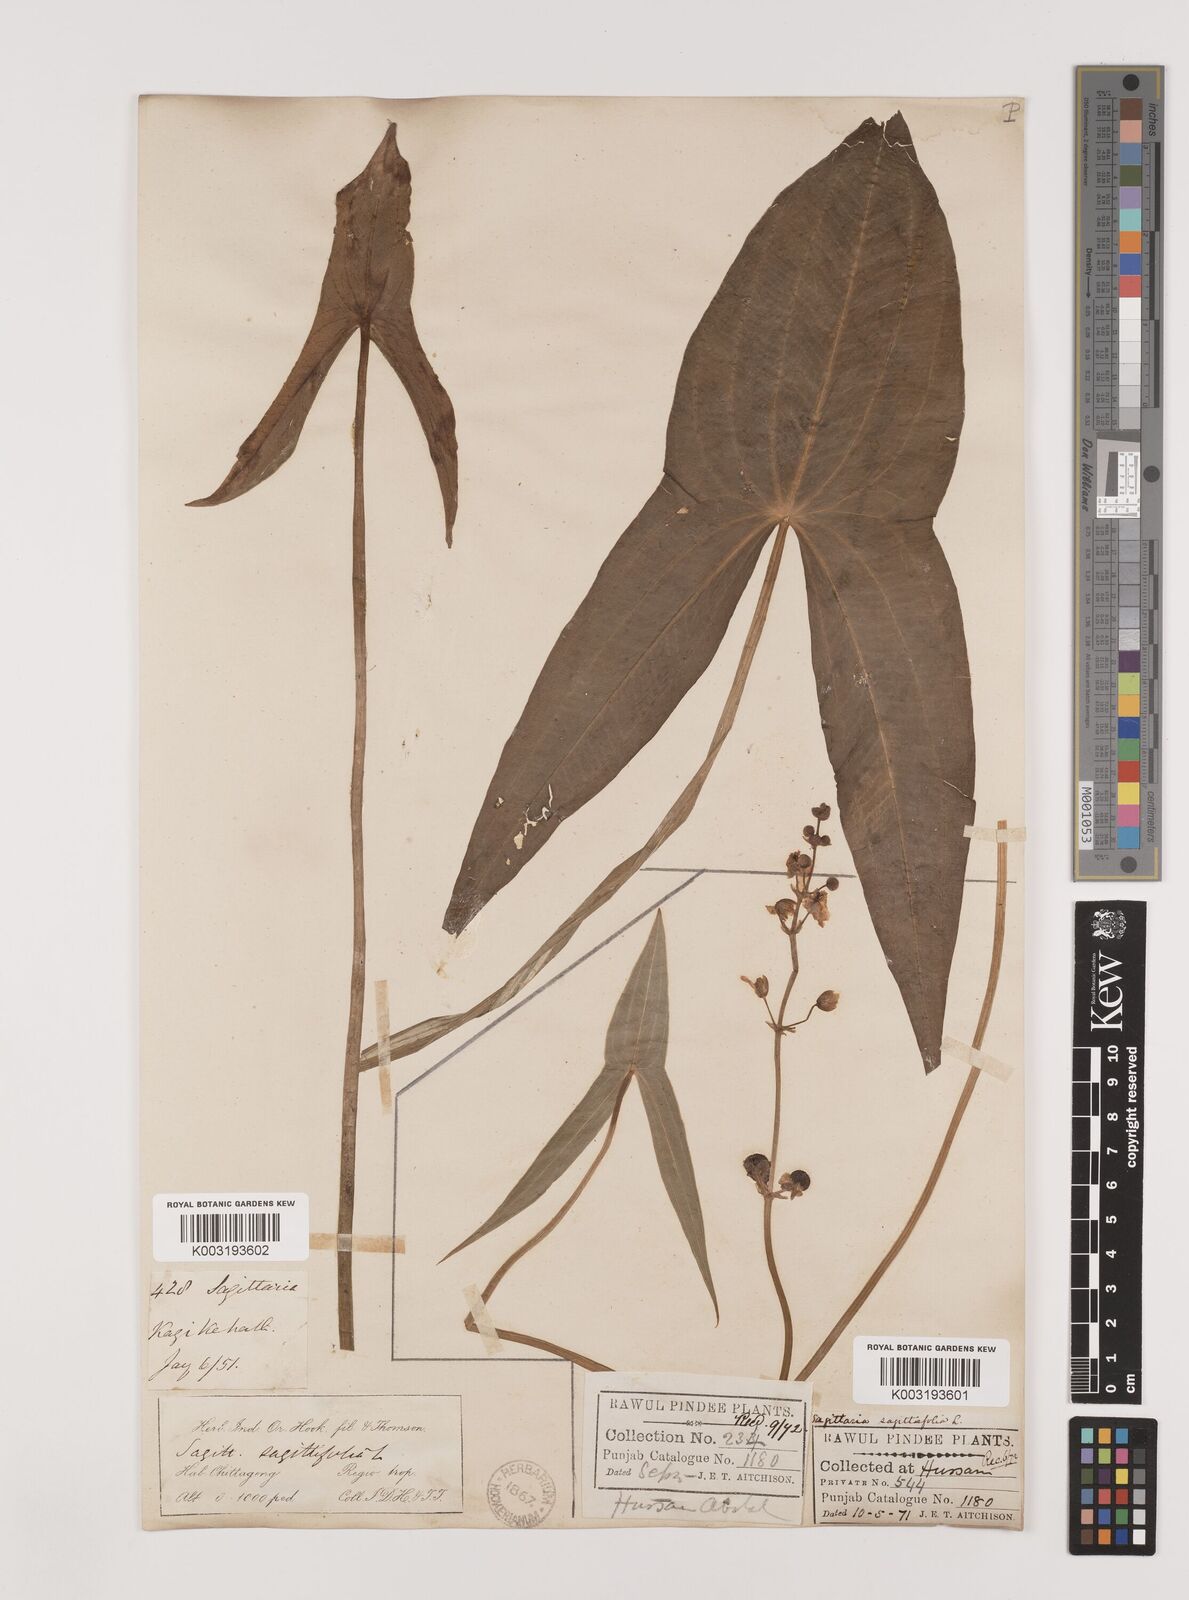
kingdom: Plantae
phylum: Tracheophyta
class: Liliopsida
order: Alismatales
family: Alismataceae
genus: Sagittaria
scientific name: Sagittaria sagittifolia
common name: Arrowhead
